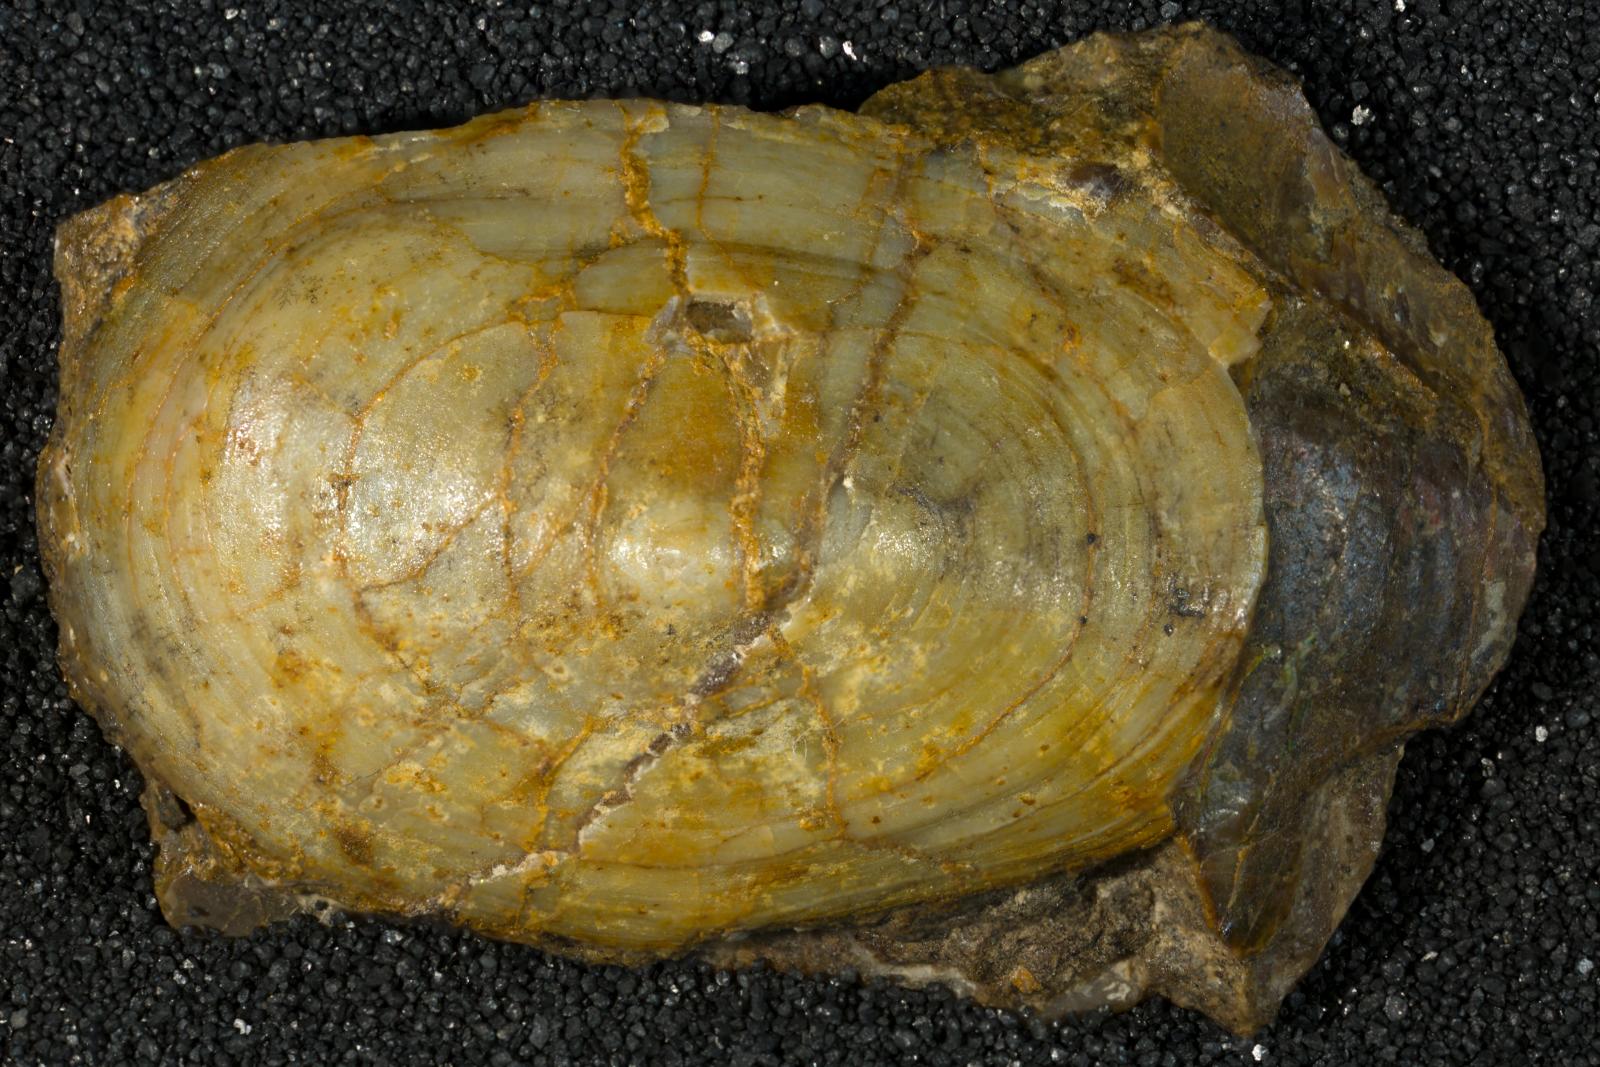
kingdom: Animalia
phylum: Mollusca
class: Gastropoda
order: Siphonariida
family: Siphonariidae
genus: Anisomyon
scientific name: Anisomyon meekii
